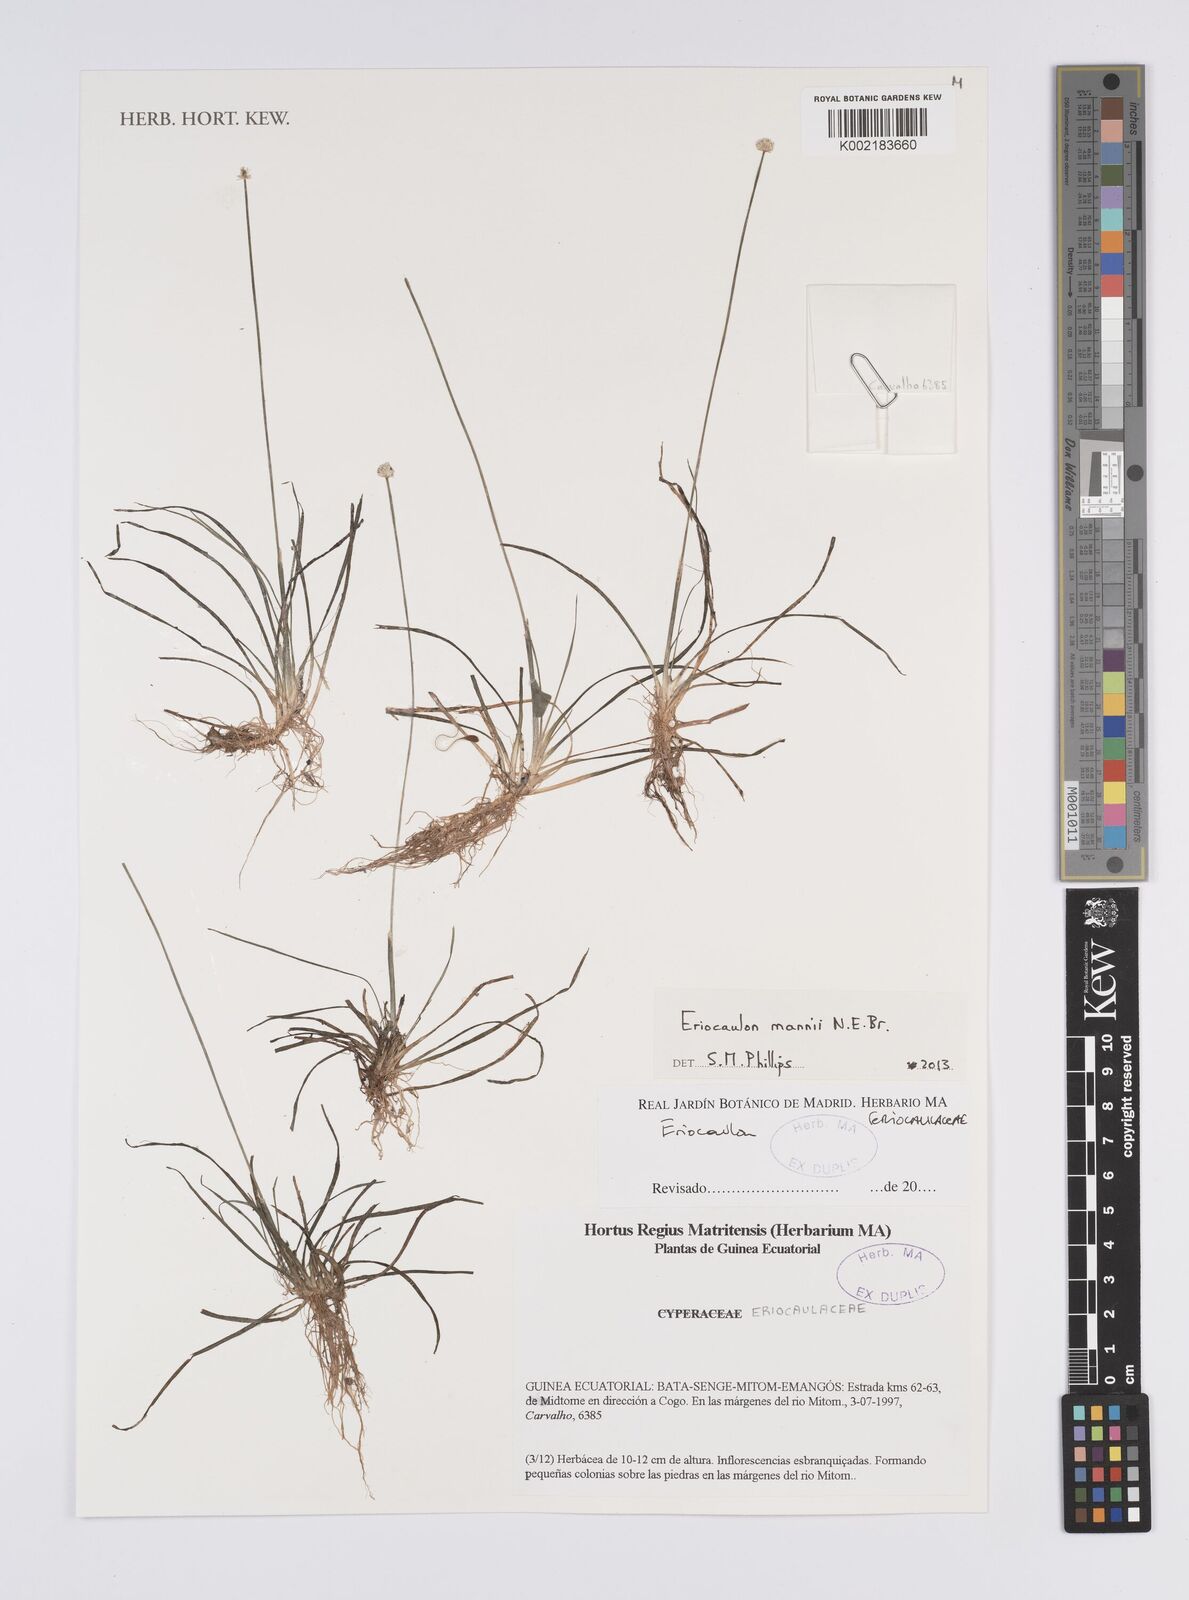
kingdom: Plantae
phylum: Tracheophyta
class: Liliopsida
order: Poales
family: Eriocaulaceae
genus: Eriocaulon
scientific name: Eriocaulon mannii
